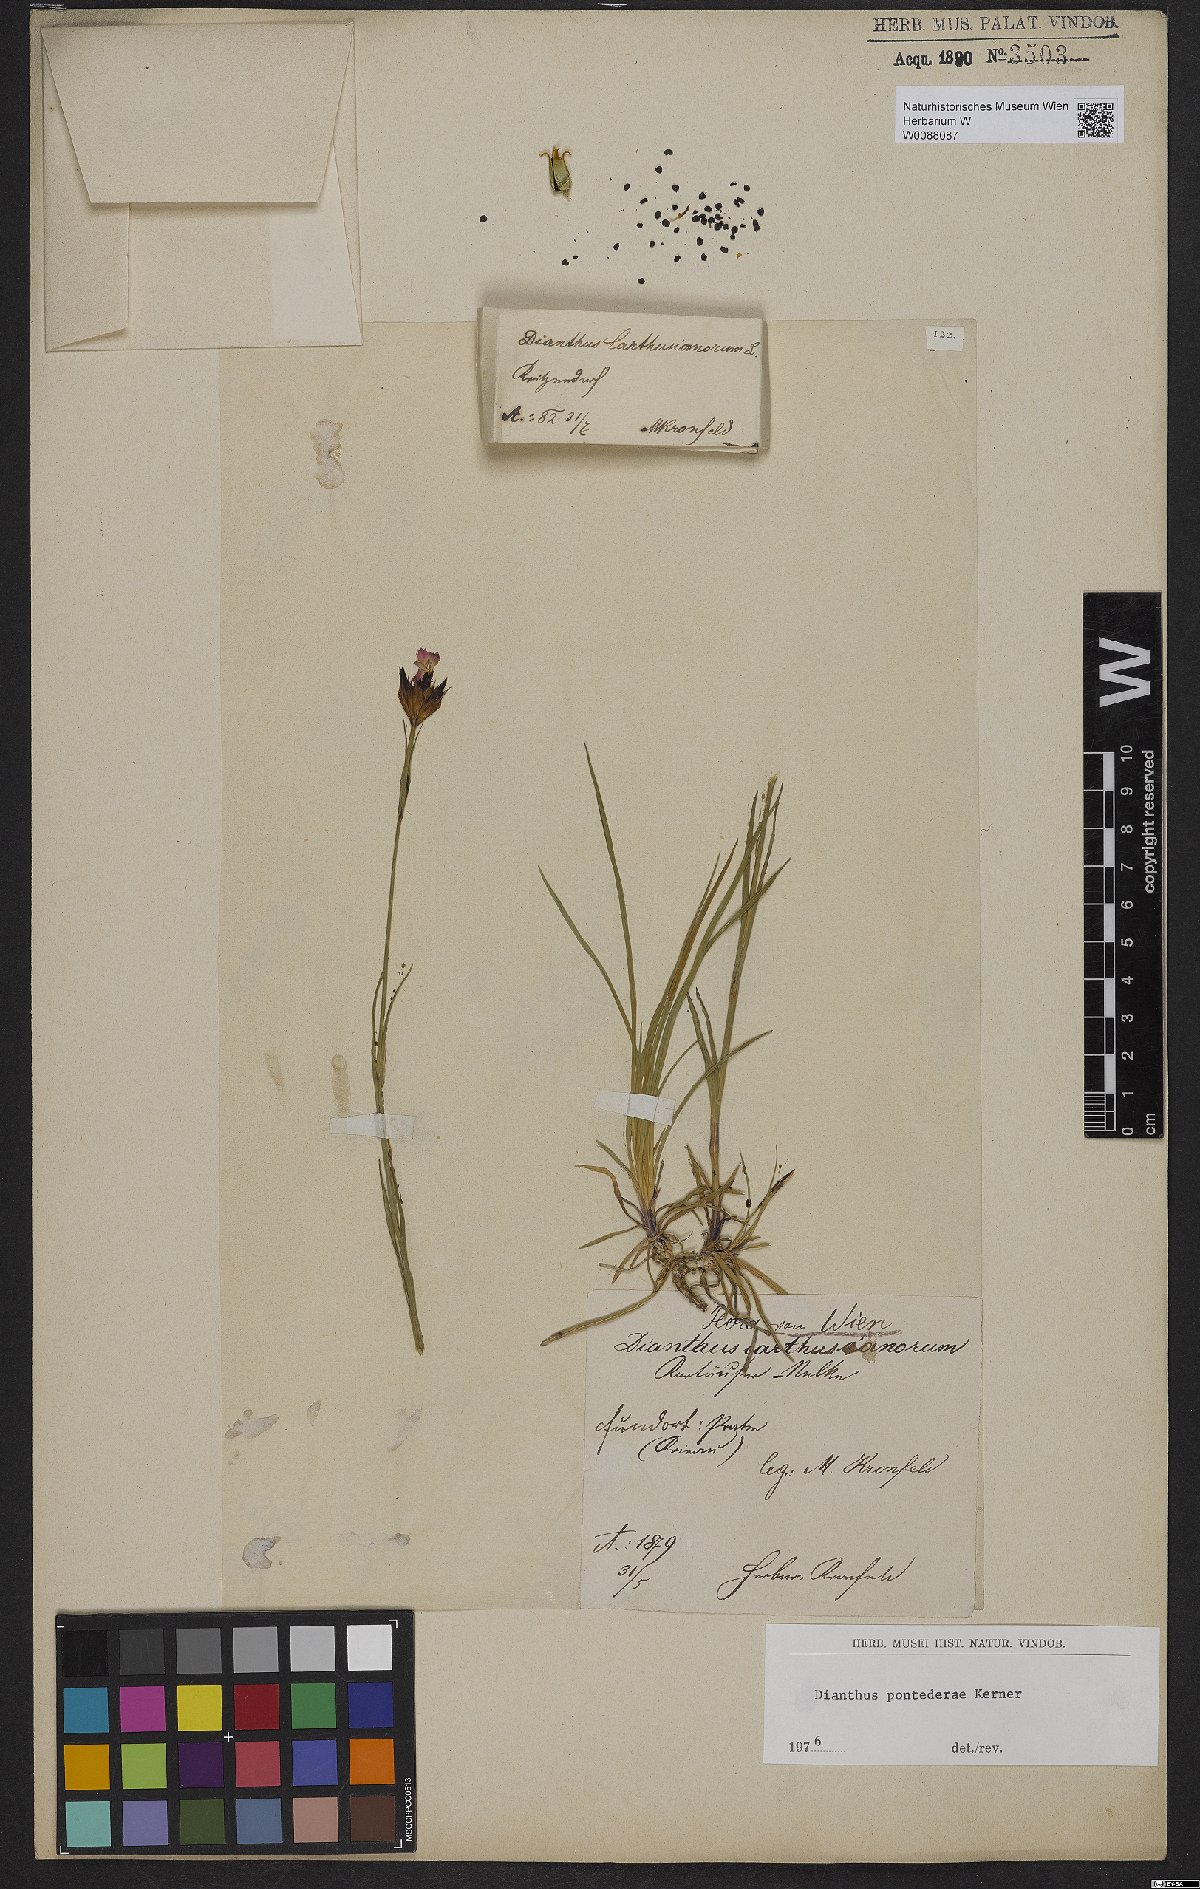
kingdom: Plantae
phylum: Tracheophyta
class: Magnoliopsida
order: Caryophyllales
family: Caryophyllaceae
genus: Dianthus
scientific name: Dianthus pontederae
